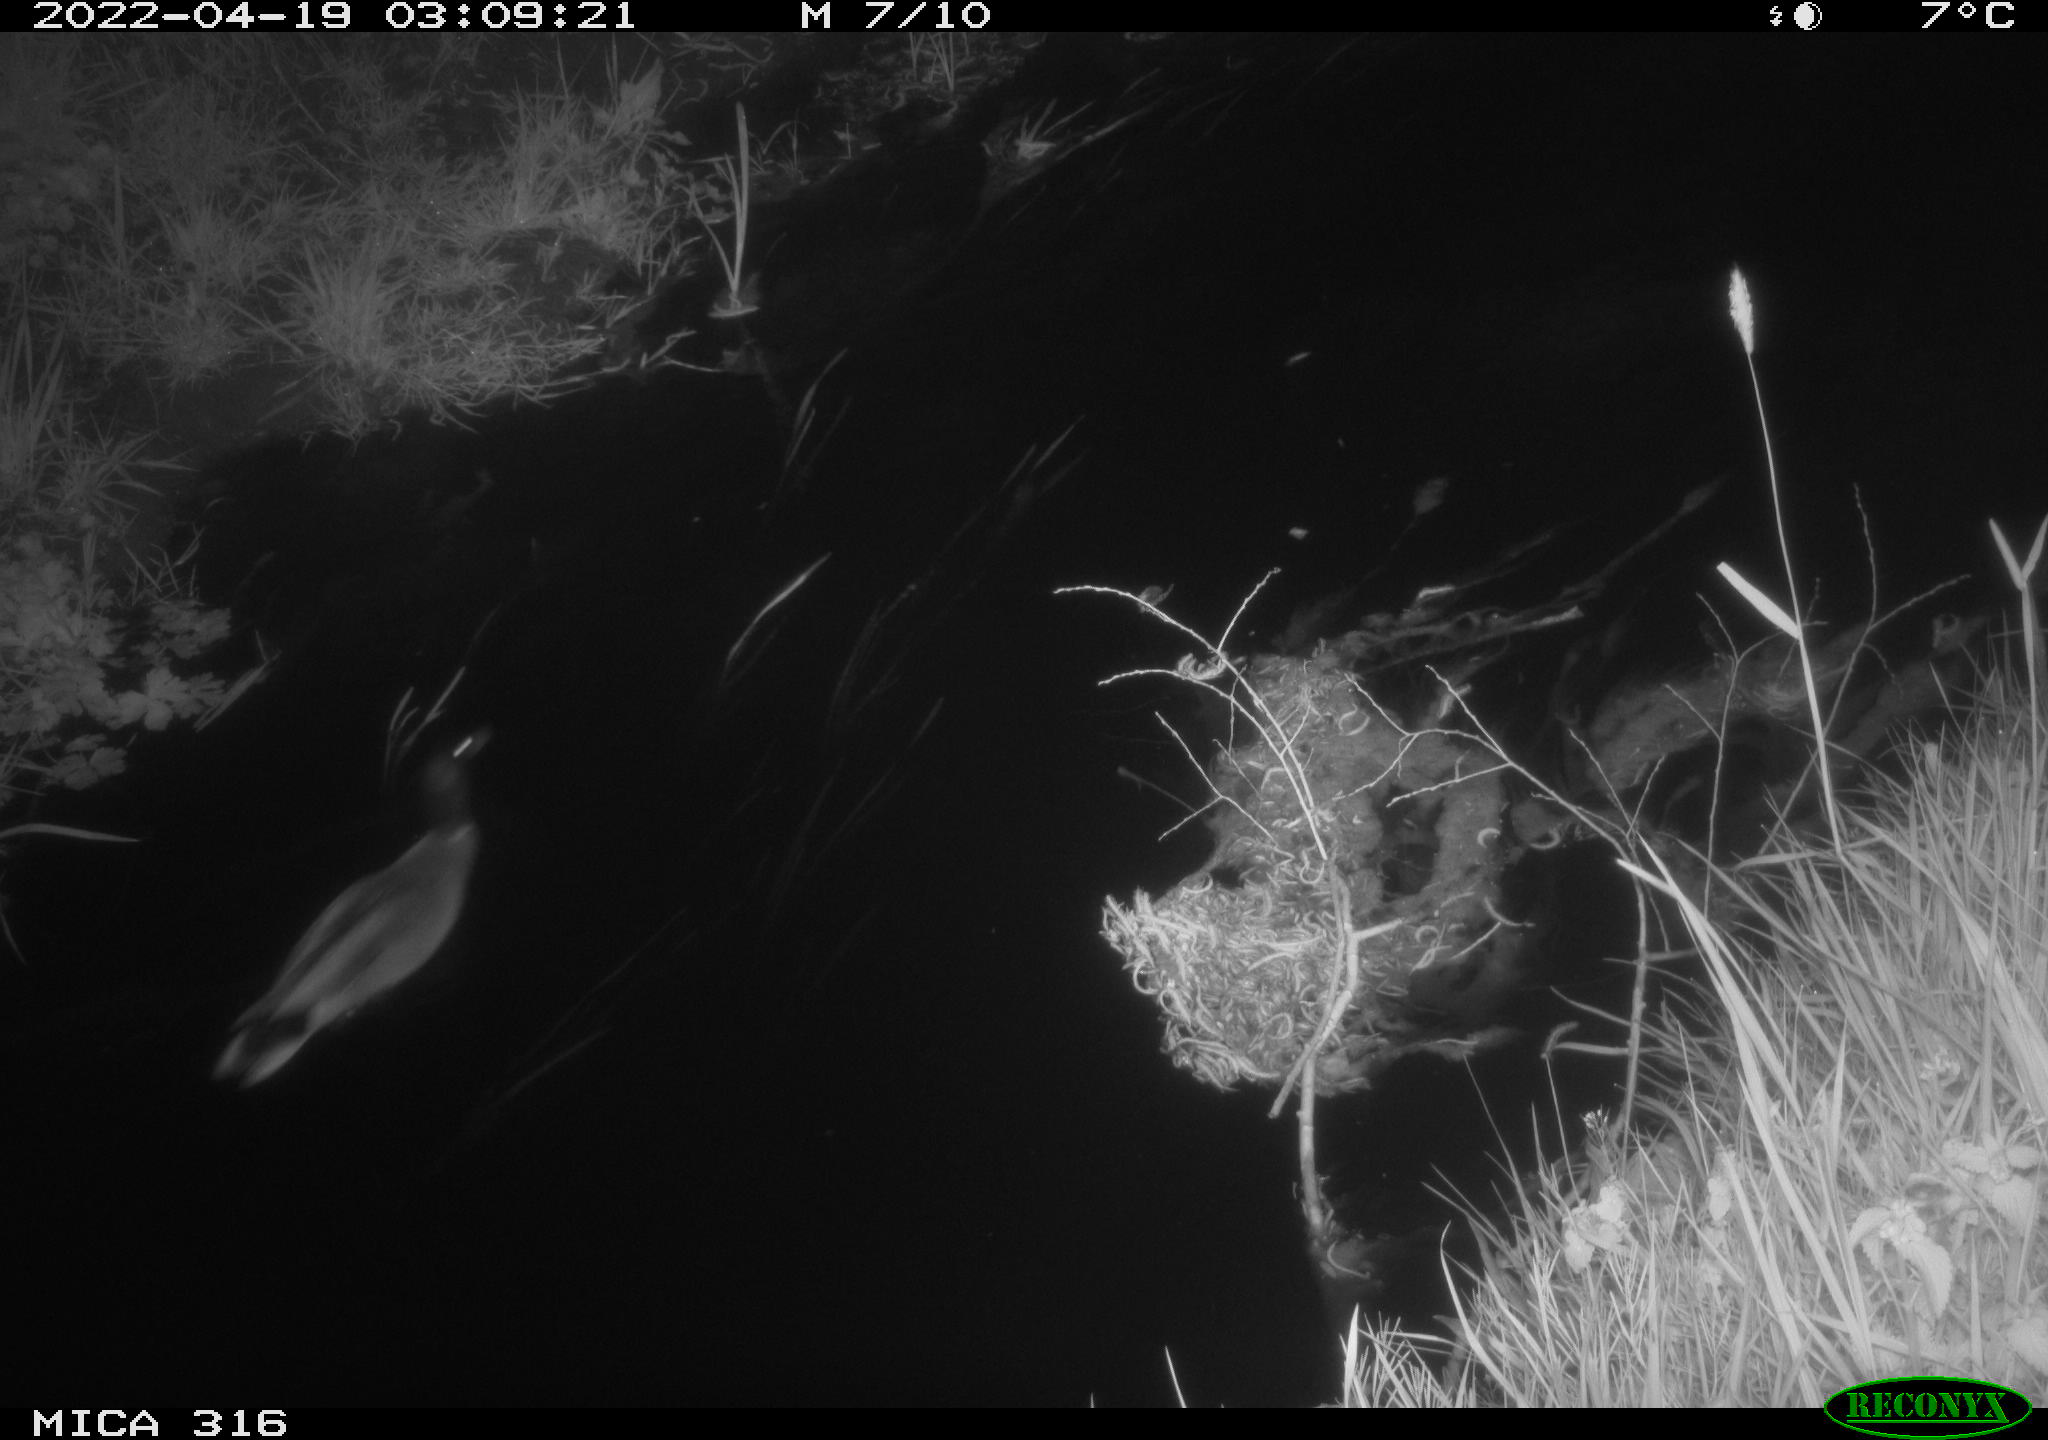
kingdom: Animalia
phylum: Chordata
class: Aves
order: Anseriformes
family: Anatidae
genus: Anas
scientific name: Anas platyrhynchos
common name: Mallard
